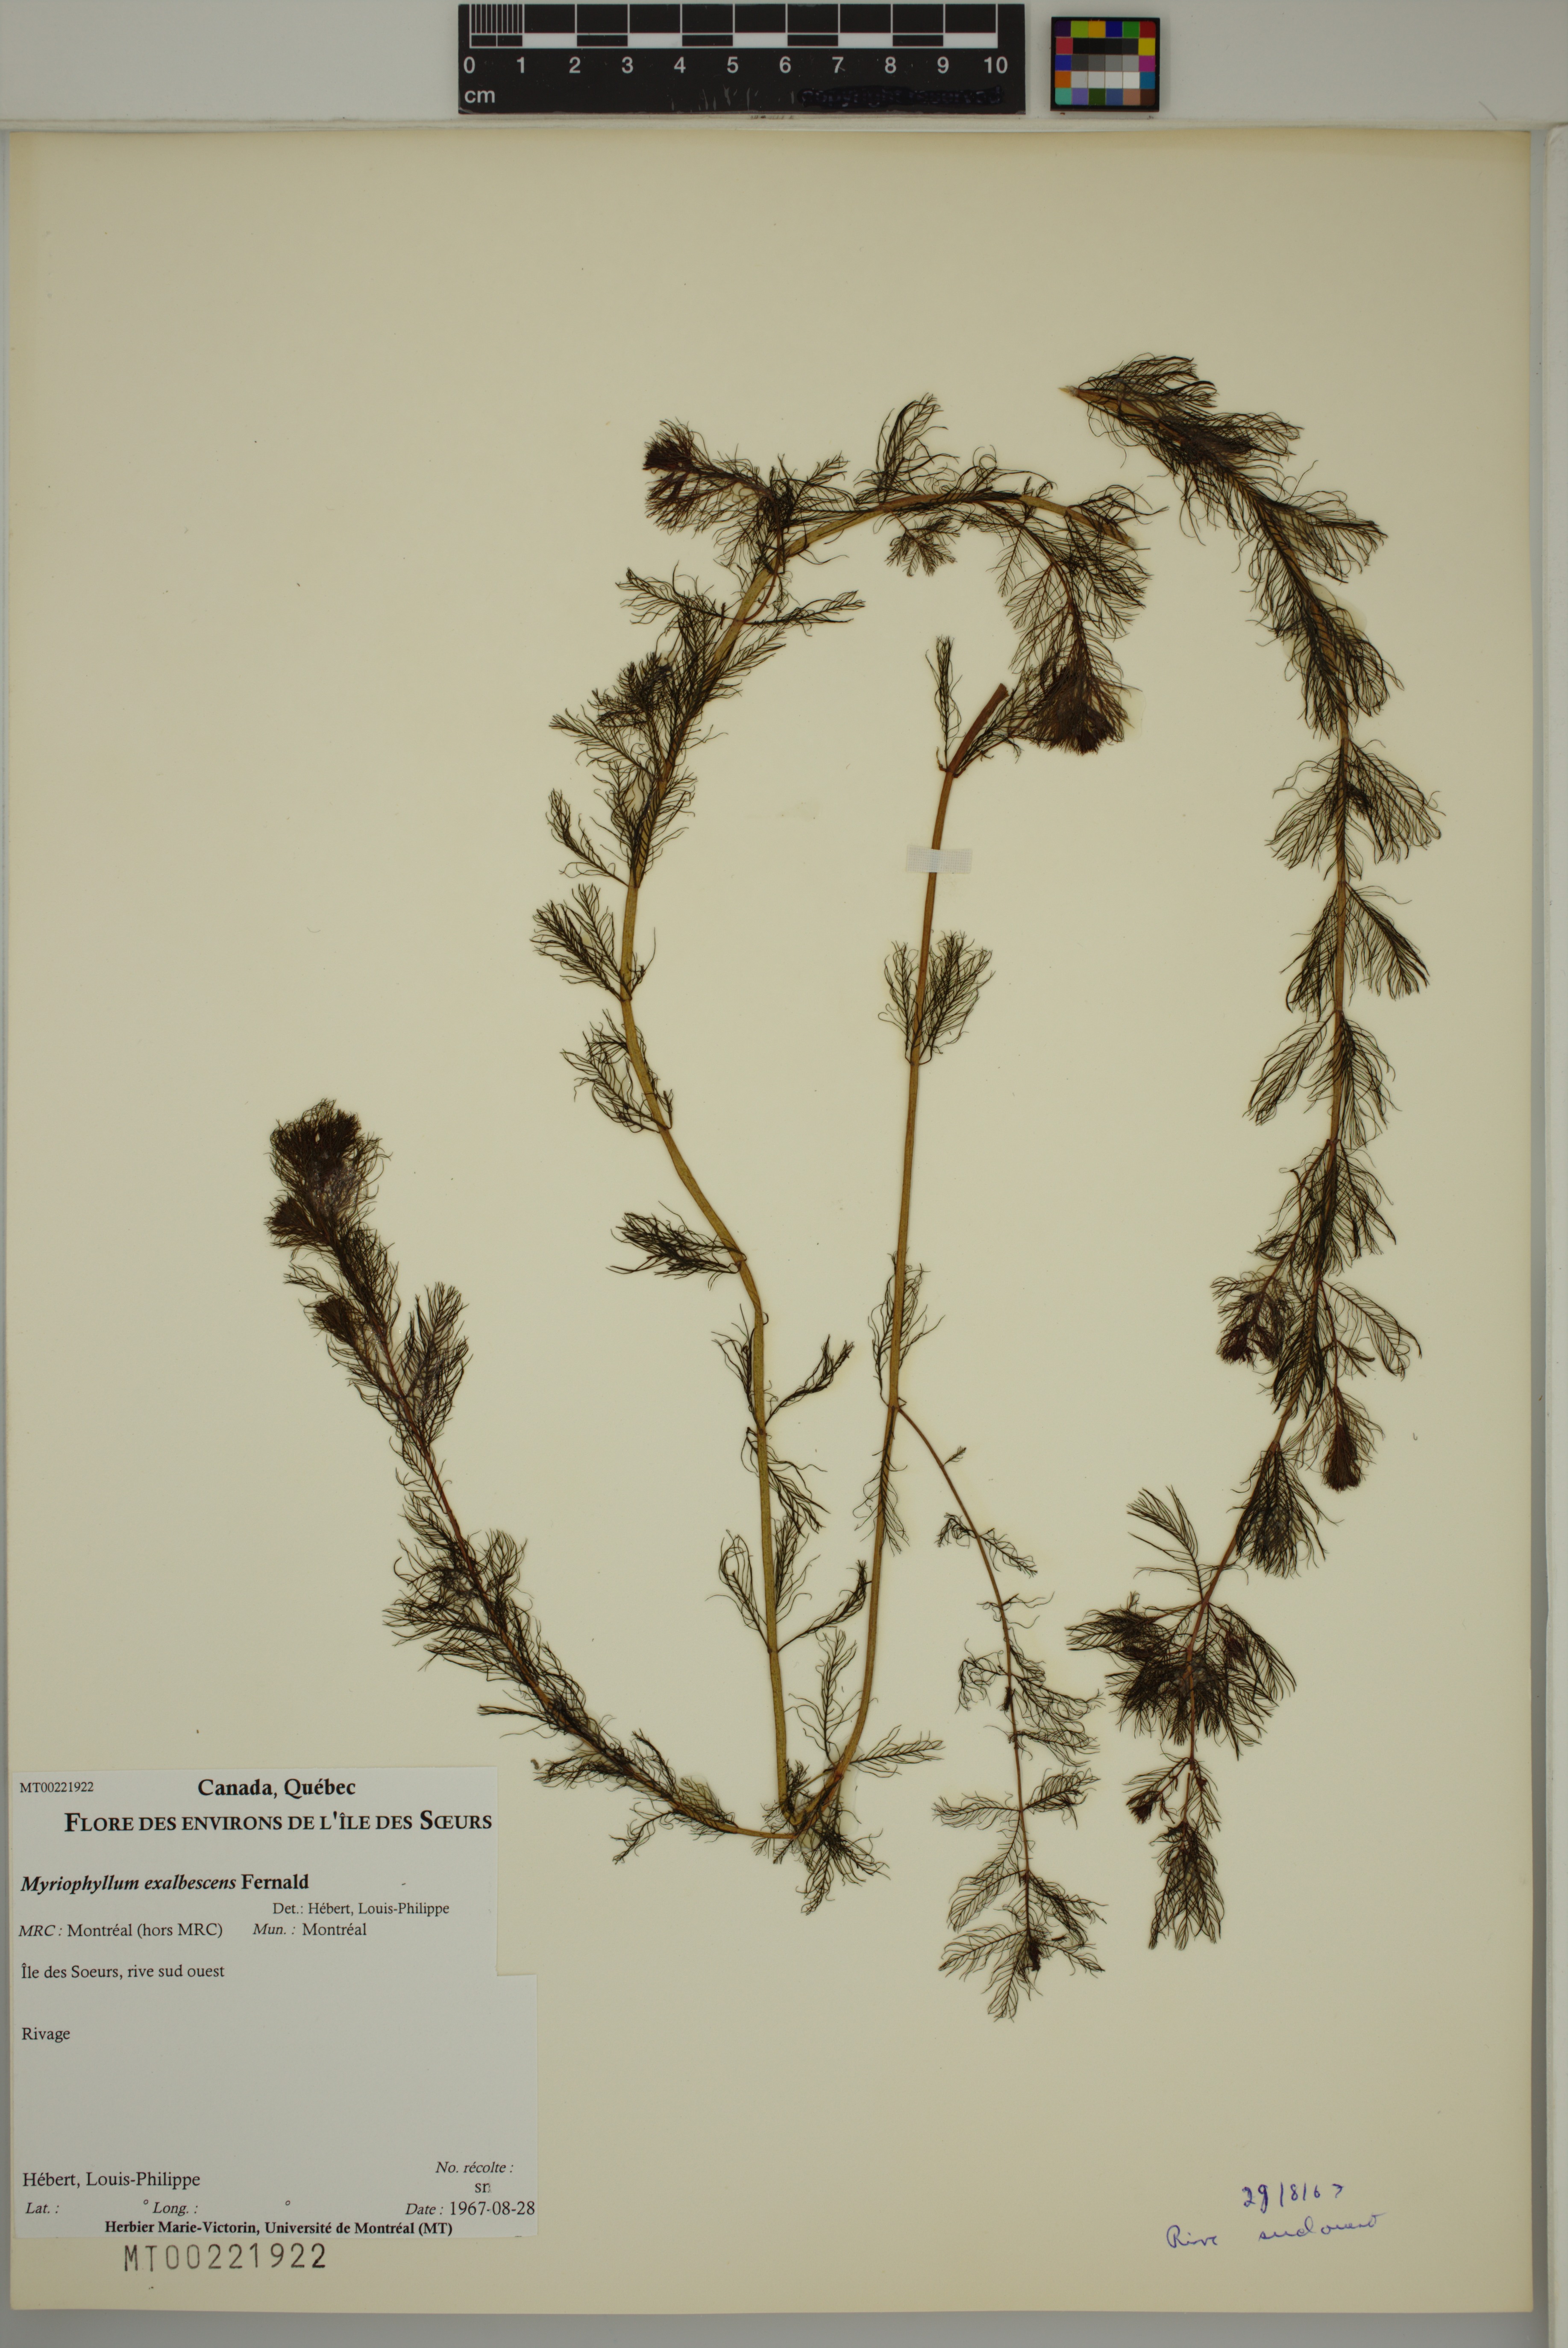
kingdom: Plantae
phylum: Tracheophyta
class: Magnoliopsida
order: Saxifragales
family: Haloragaceae
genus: Myriophyllum
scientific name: Myriophyllum sibiricum
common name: Siberian water-milfoil
